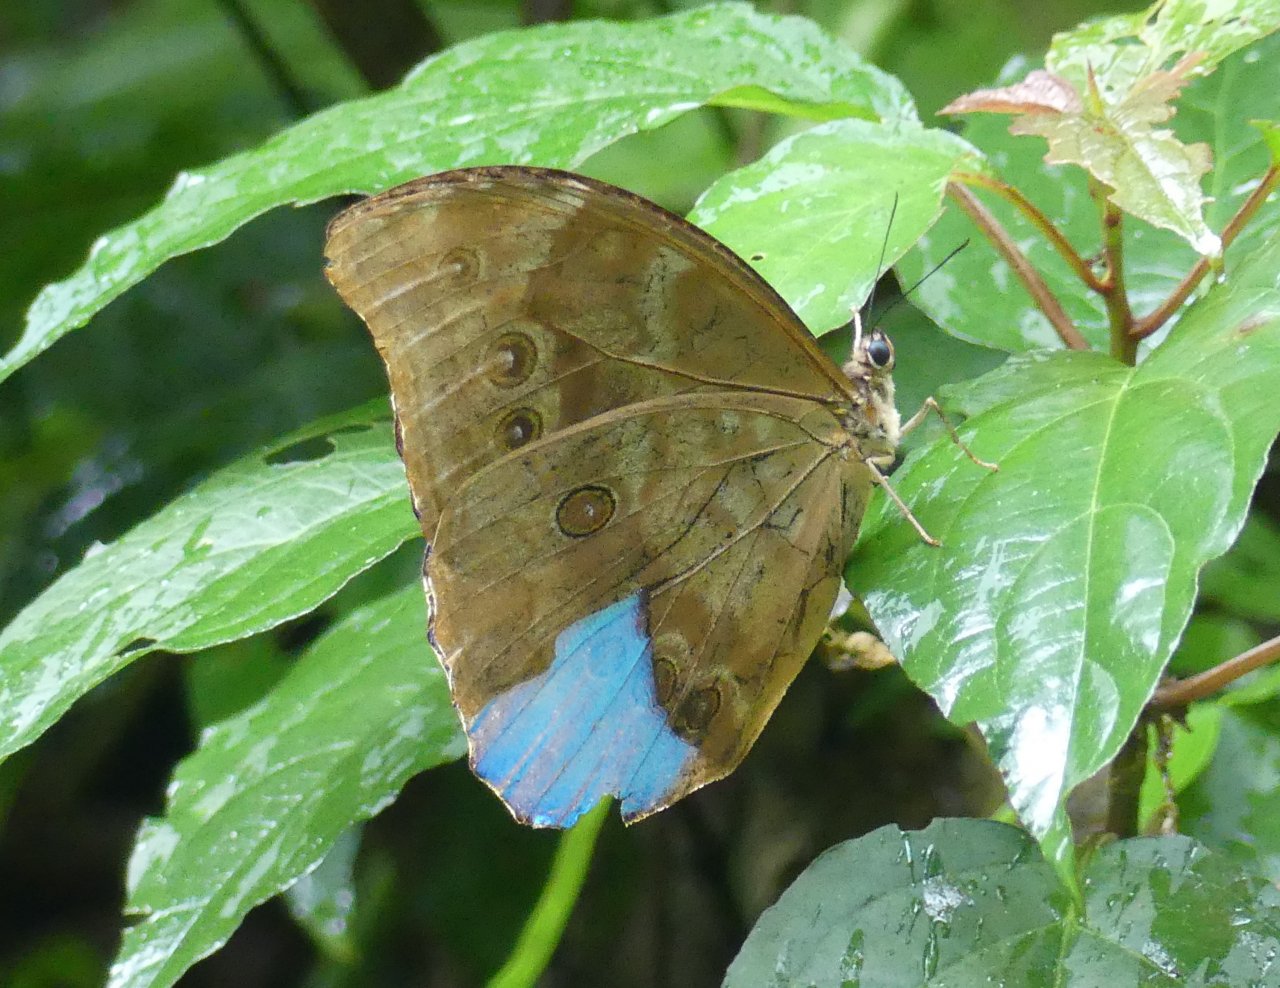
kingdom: Animalia
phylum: Arthropoda
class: Insecta
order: Lepidoptera
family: Nymphalidae
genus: Morpho
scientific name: Morpho menelaus
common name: Menelaus Morpho
